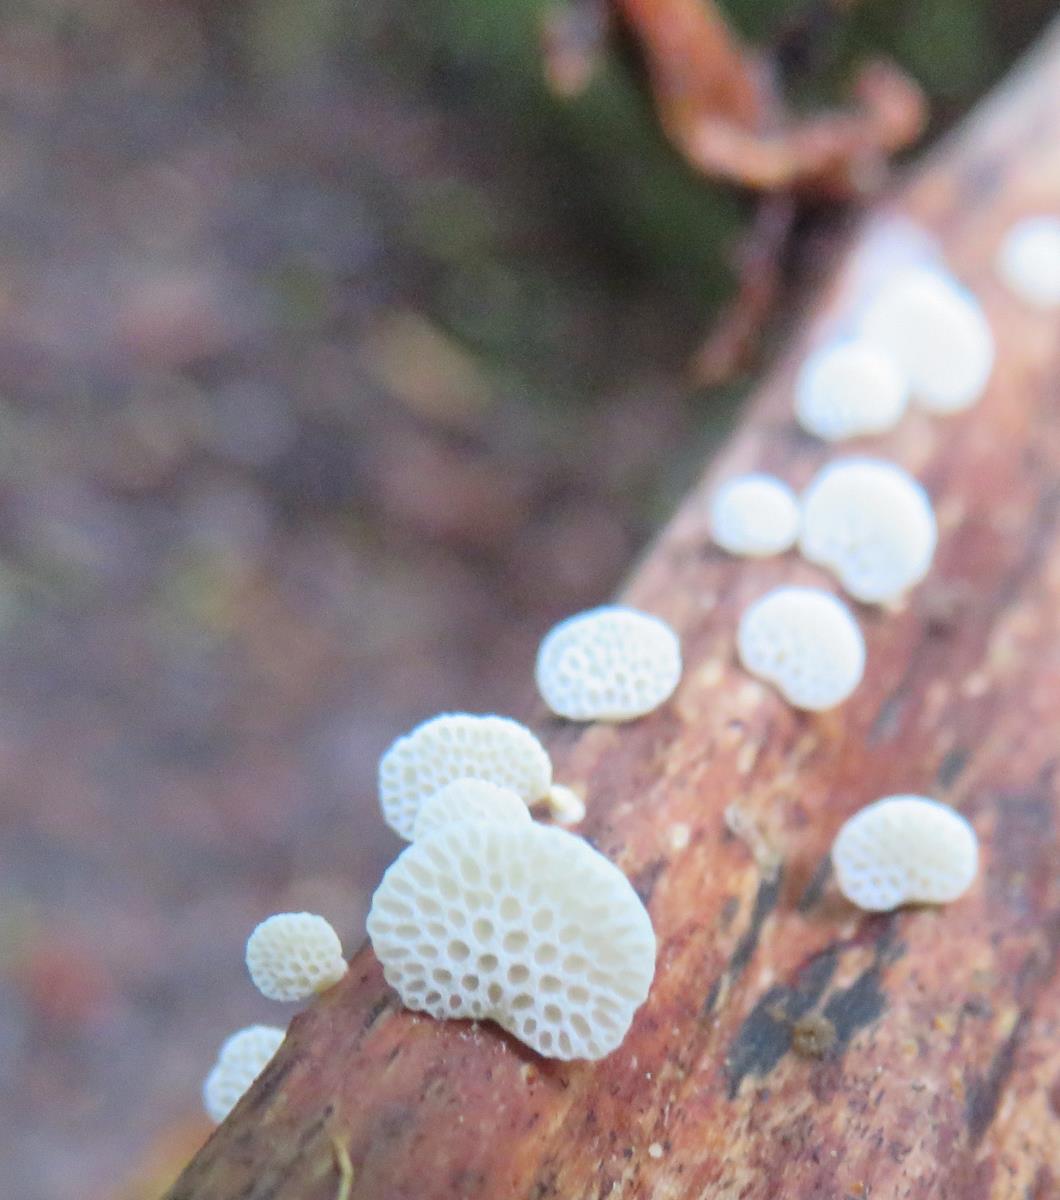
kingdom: Fungi
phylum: Basidiomycota
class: Agaricomycetes
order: Agaricales
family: Mycenaceae
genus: Favolaschia
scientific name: Favolaschia cyatheae
